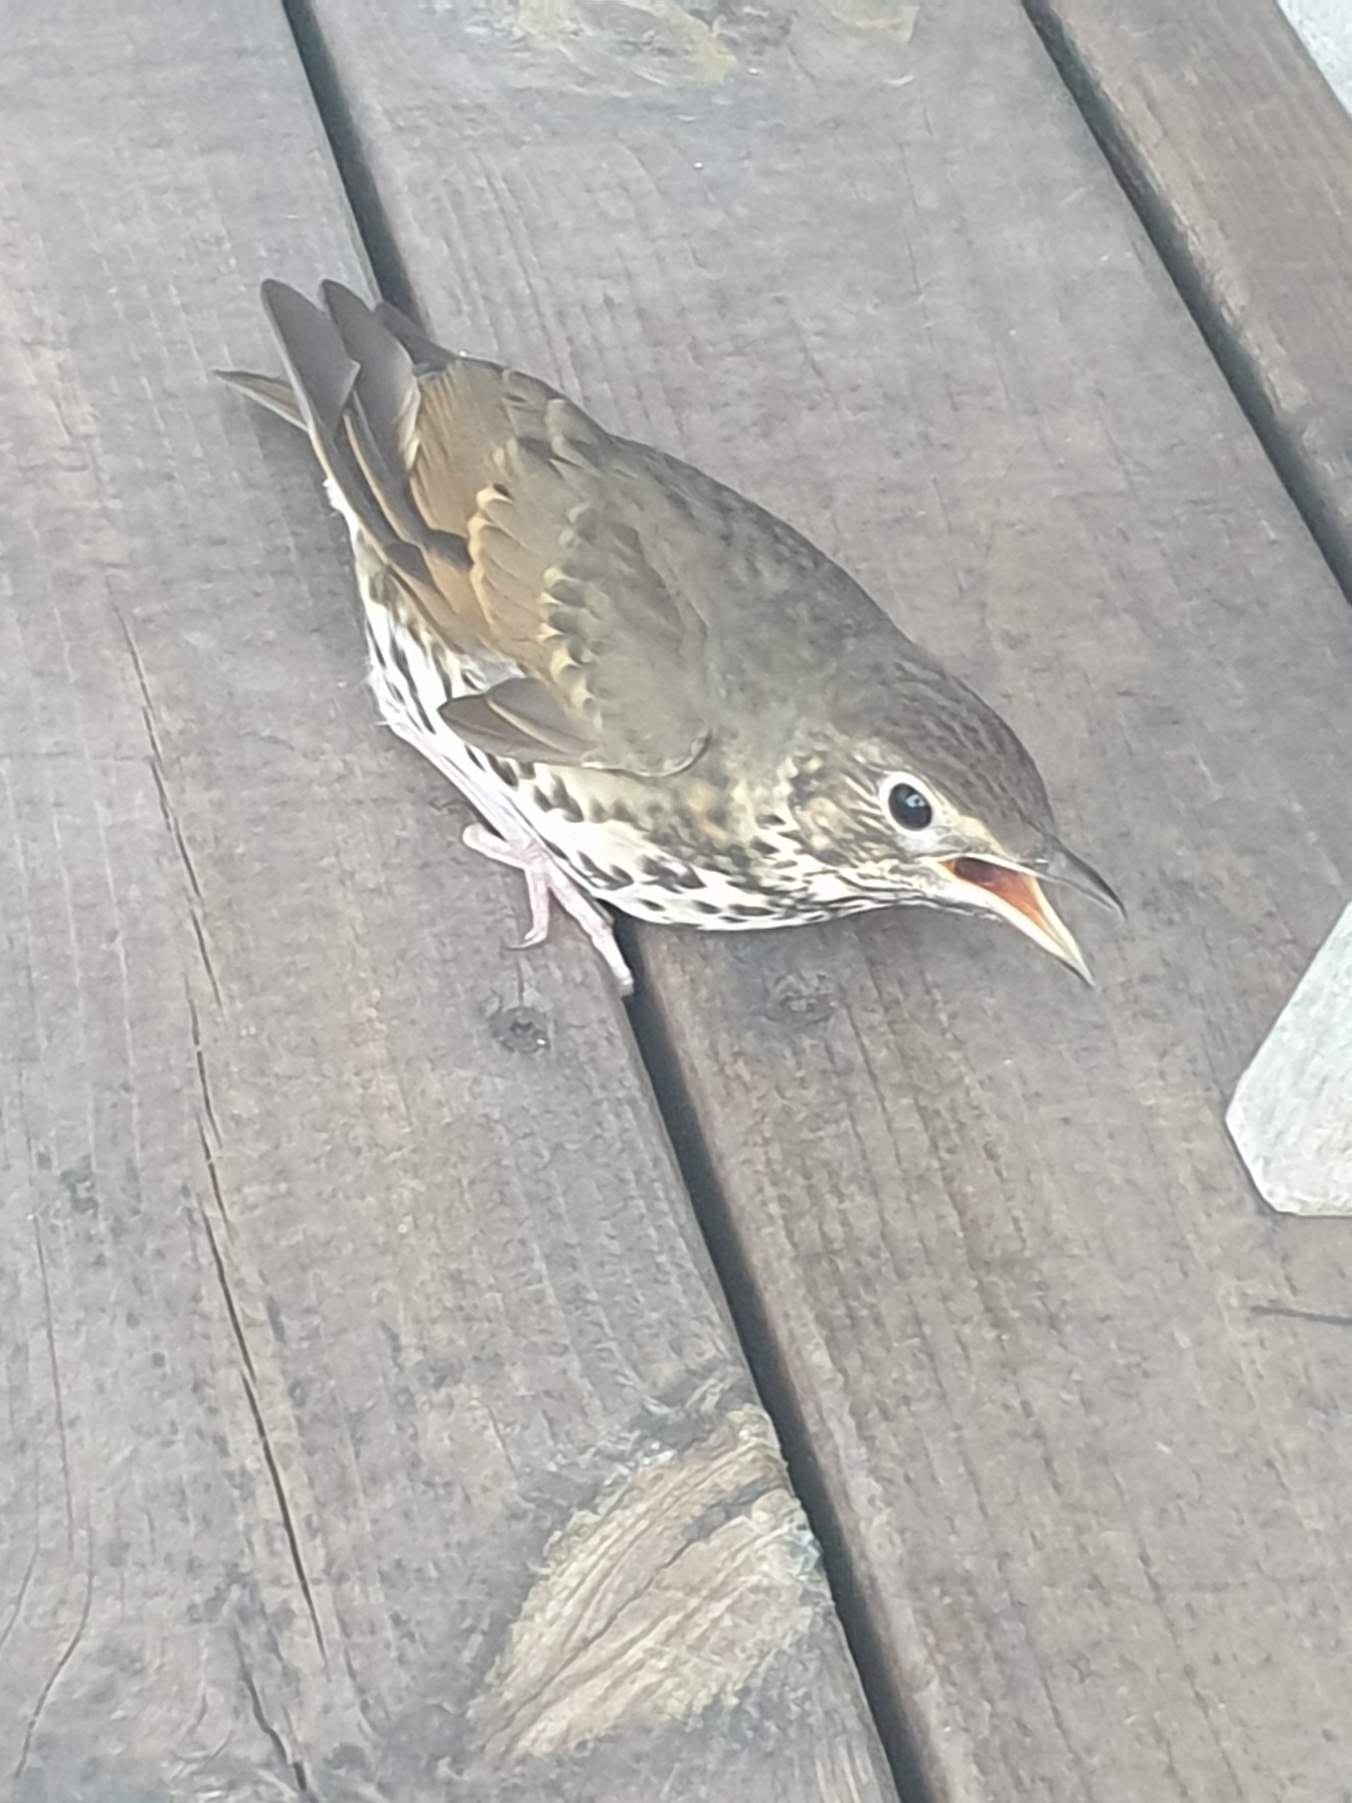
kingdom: Animalia
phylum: Chordata
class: Aves
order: Passeriformes
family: Turdidae
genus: Turdus
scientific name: Turdus philomelos
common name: Sangdrossel
